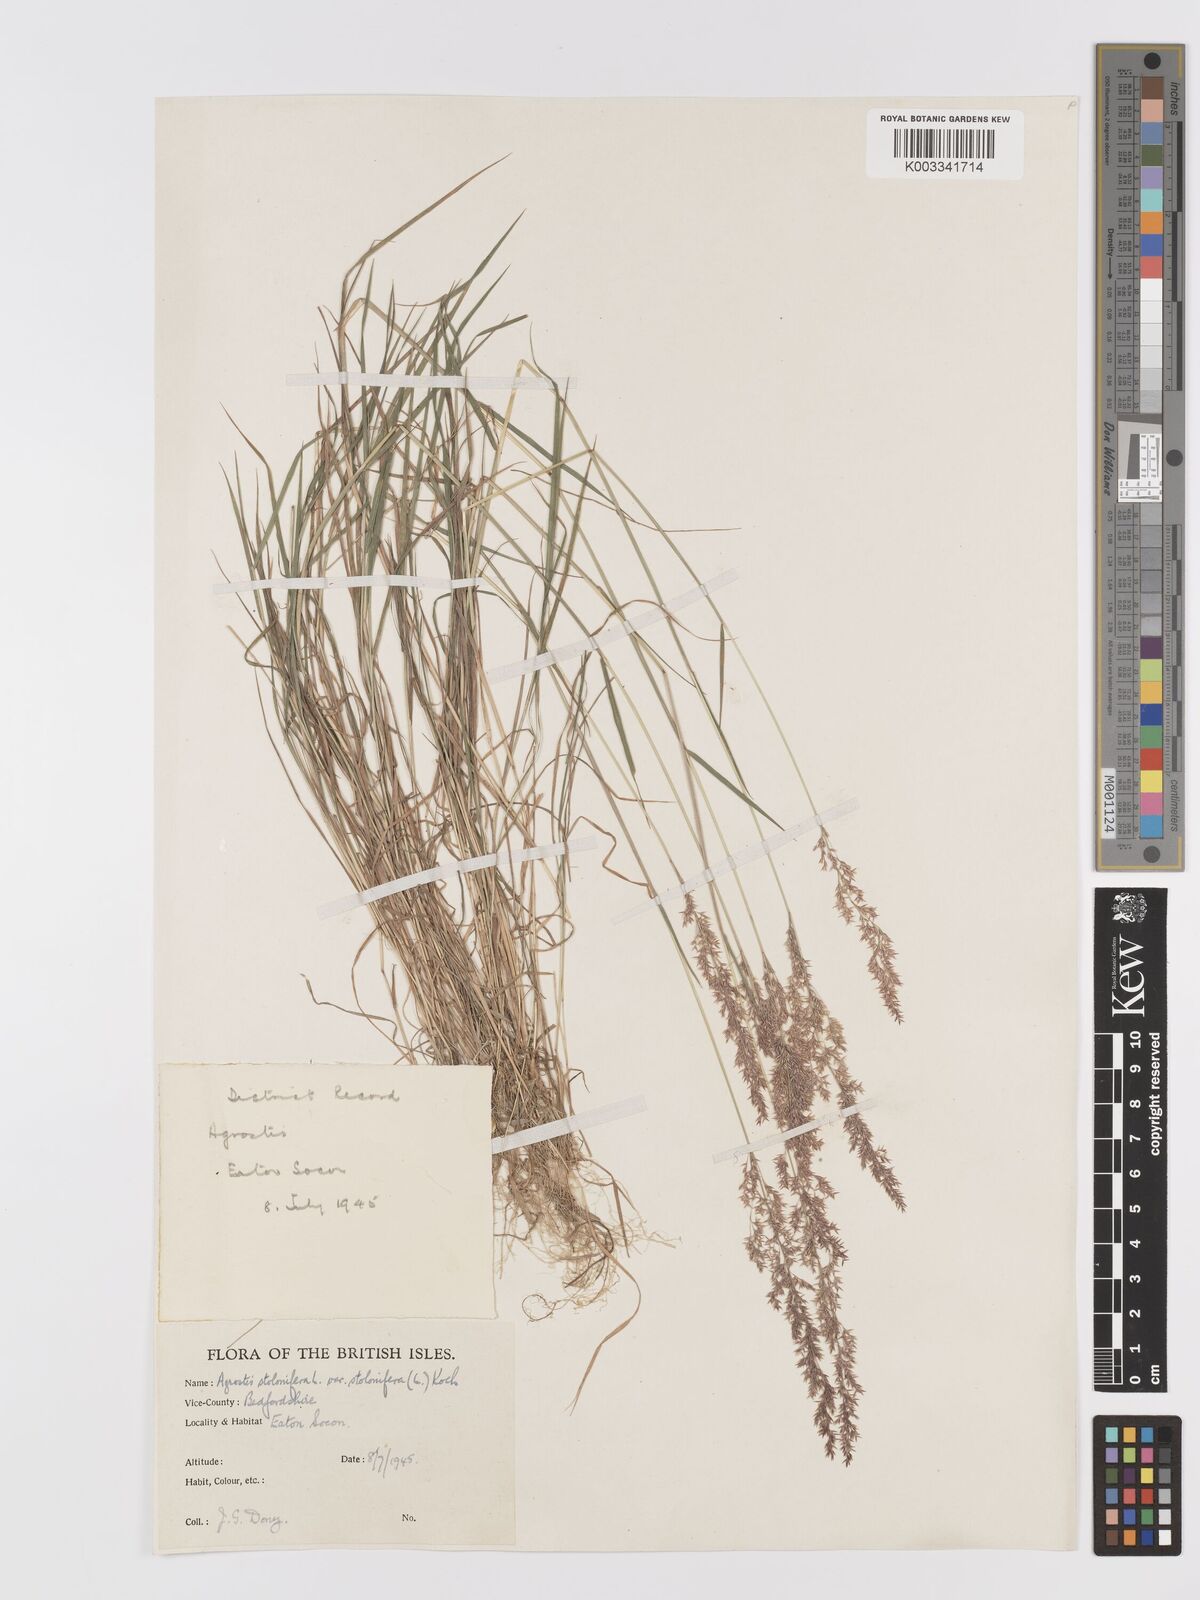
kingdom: Plantae
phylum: Tracheophyta
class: Liliopsida
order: Poales
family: Poaceae
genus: Agrostis
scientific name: Agrostis stolonifera
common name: Creeping bentgrass
